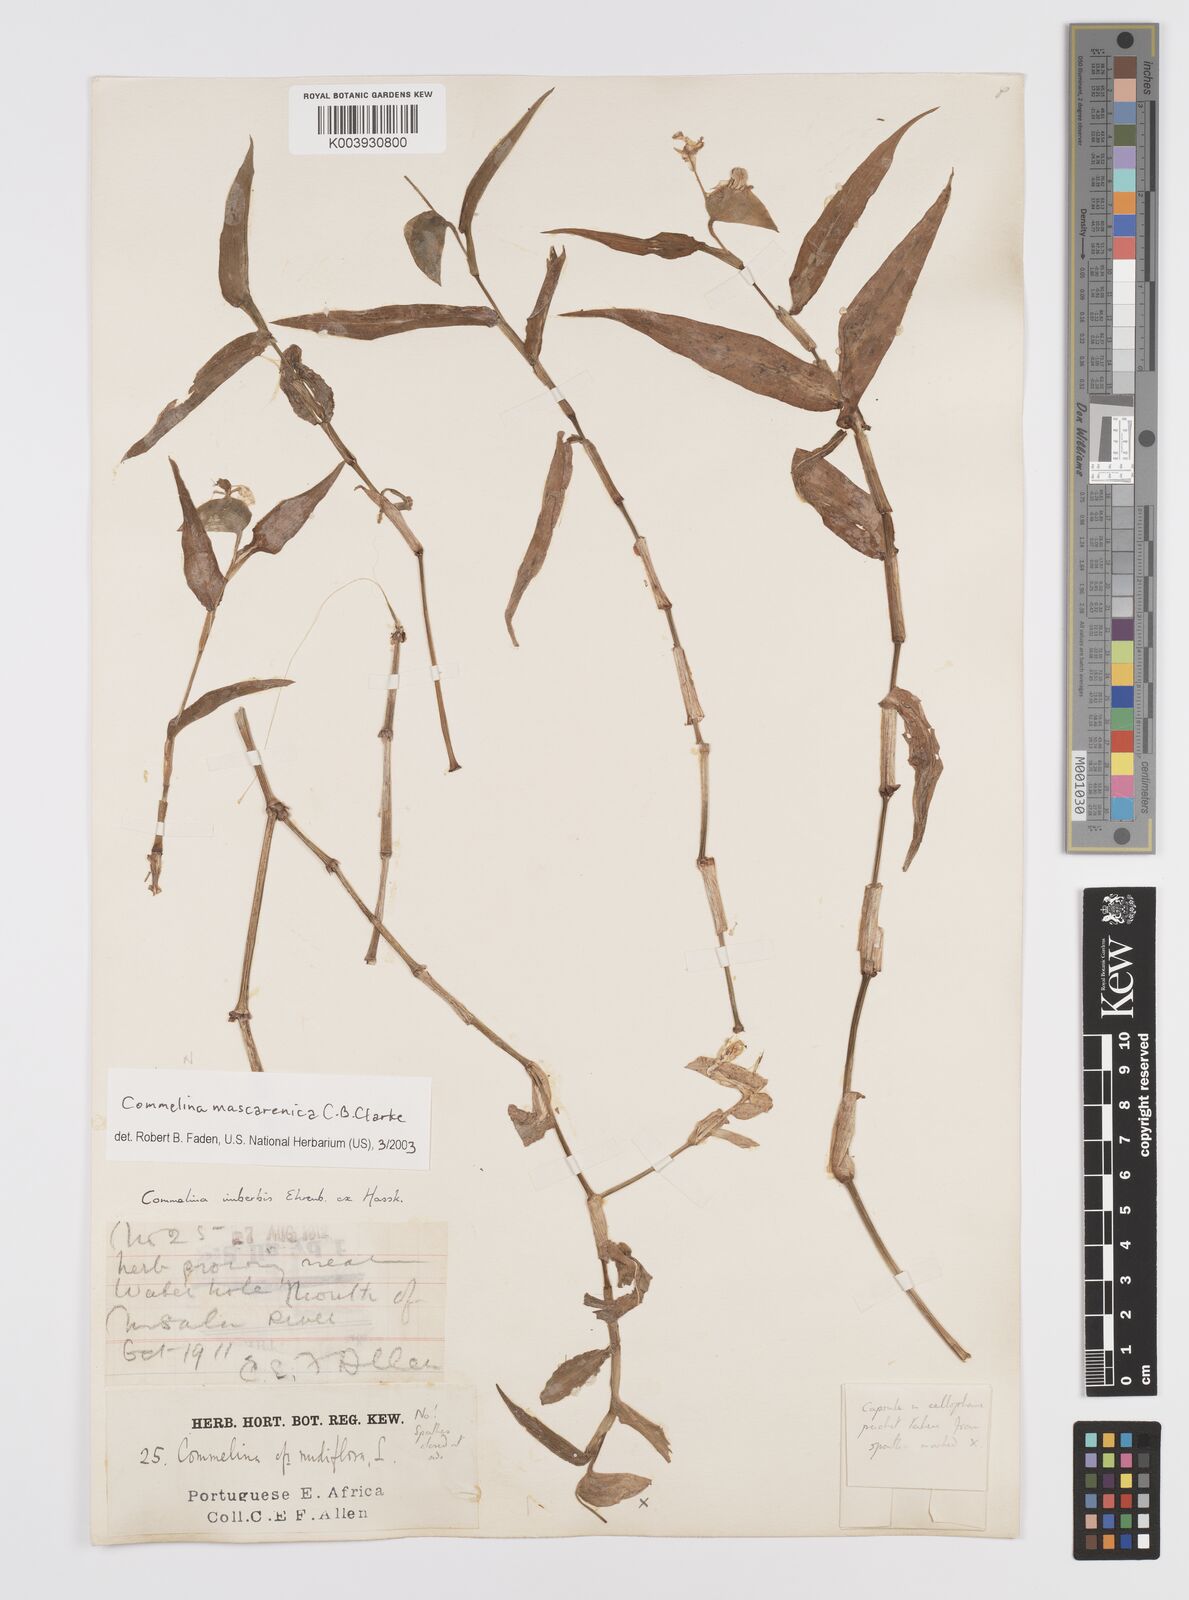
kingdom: Plantae
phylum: Tracheophyta
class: Liliopsida
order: Commelinales
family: Commelinaceae
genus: Commelina
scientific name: Commelina mascarenica
